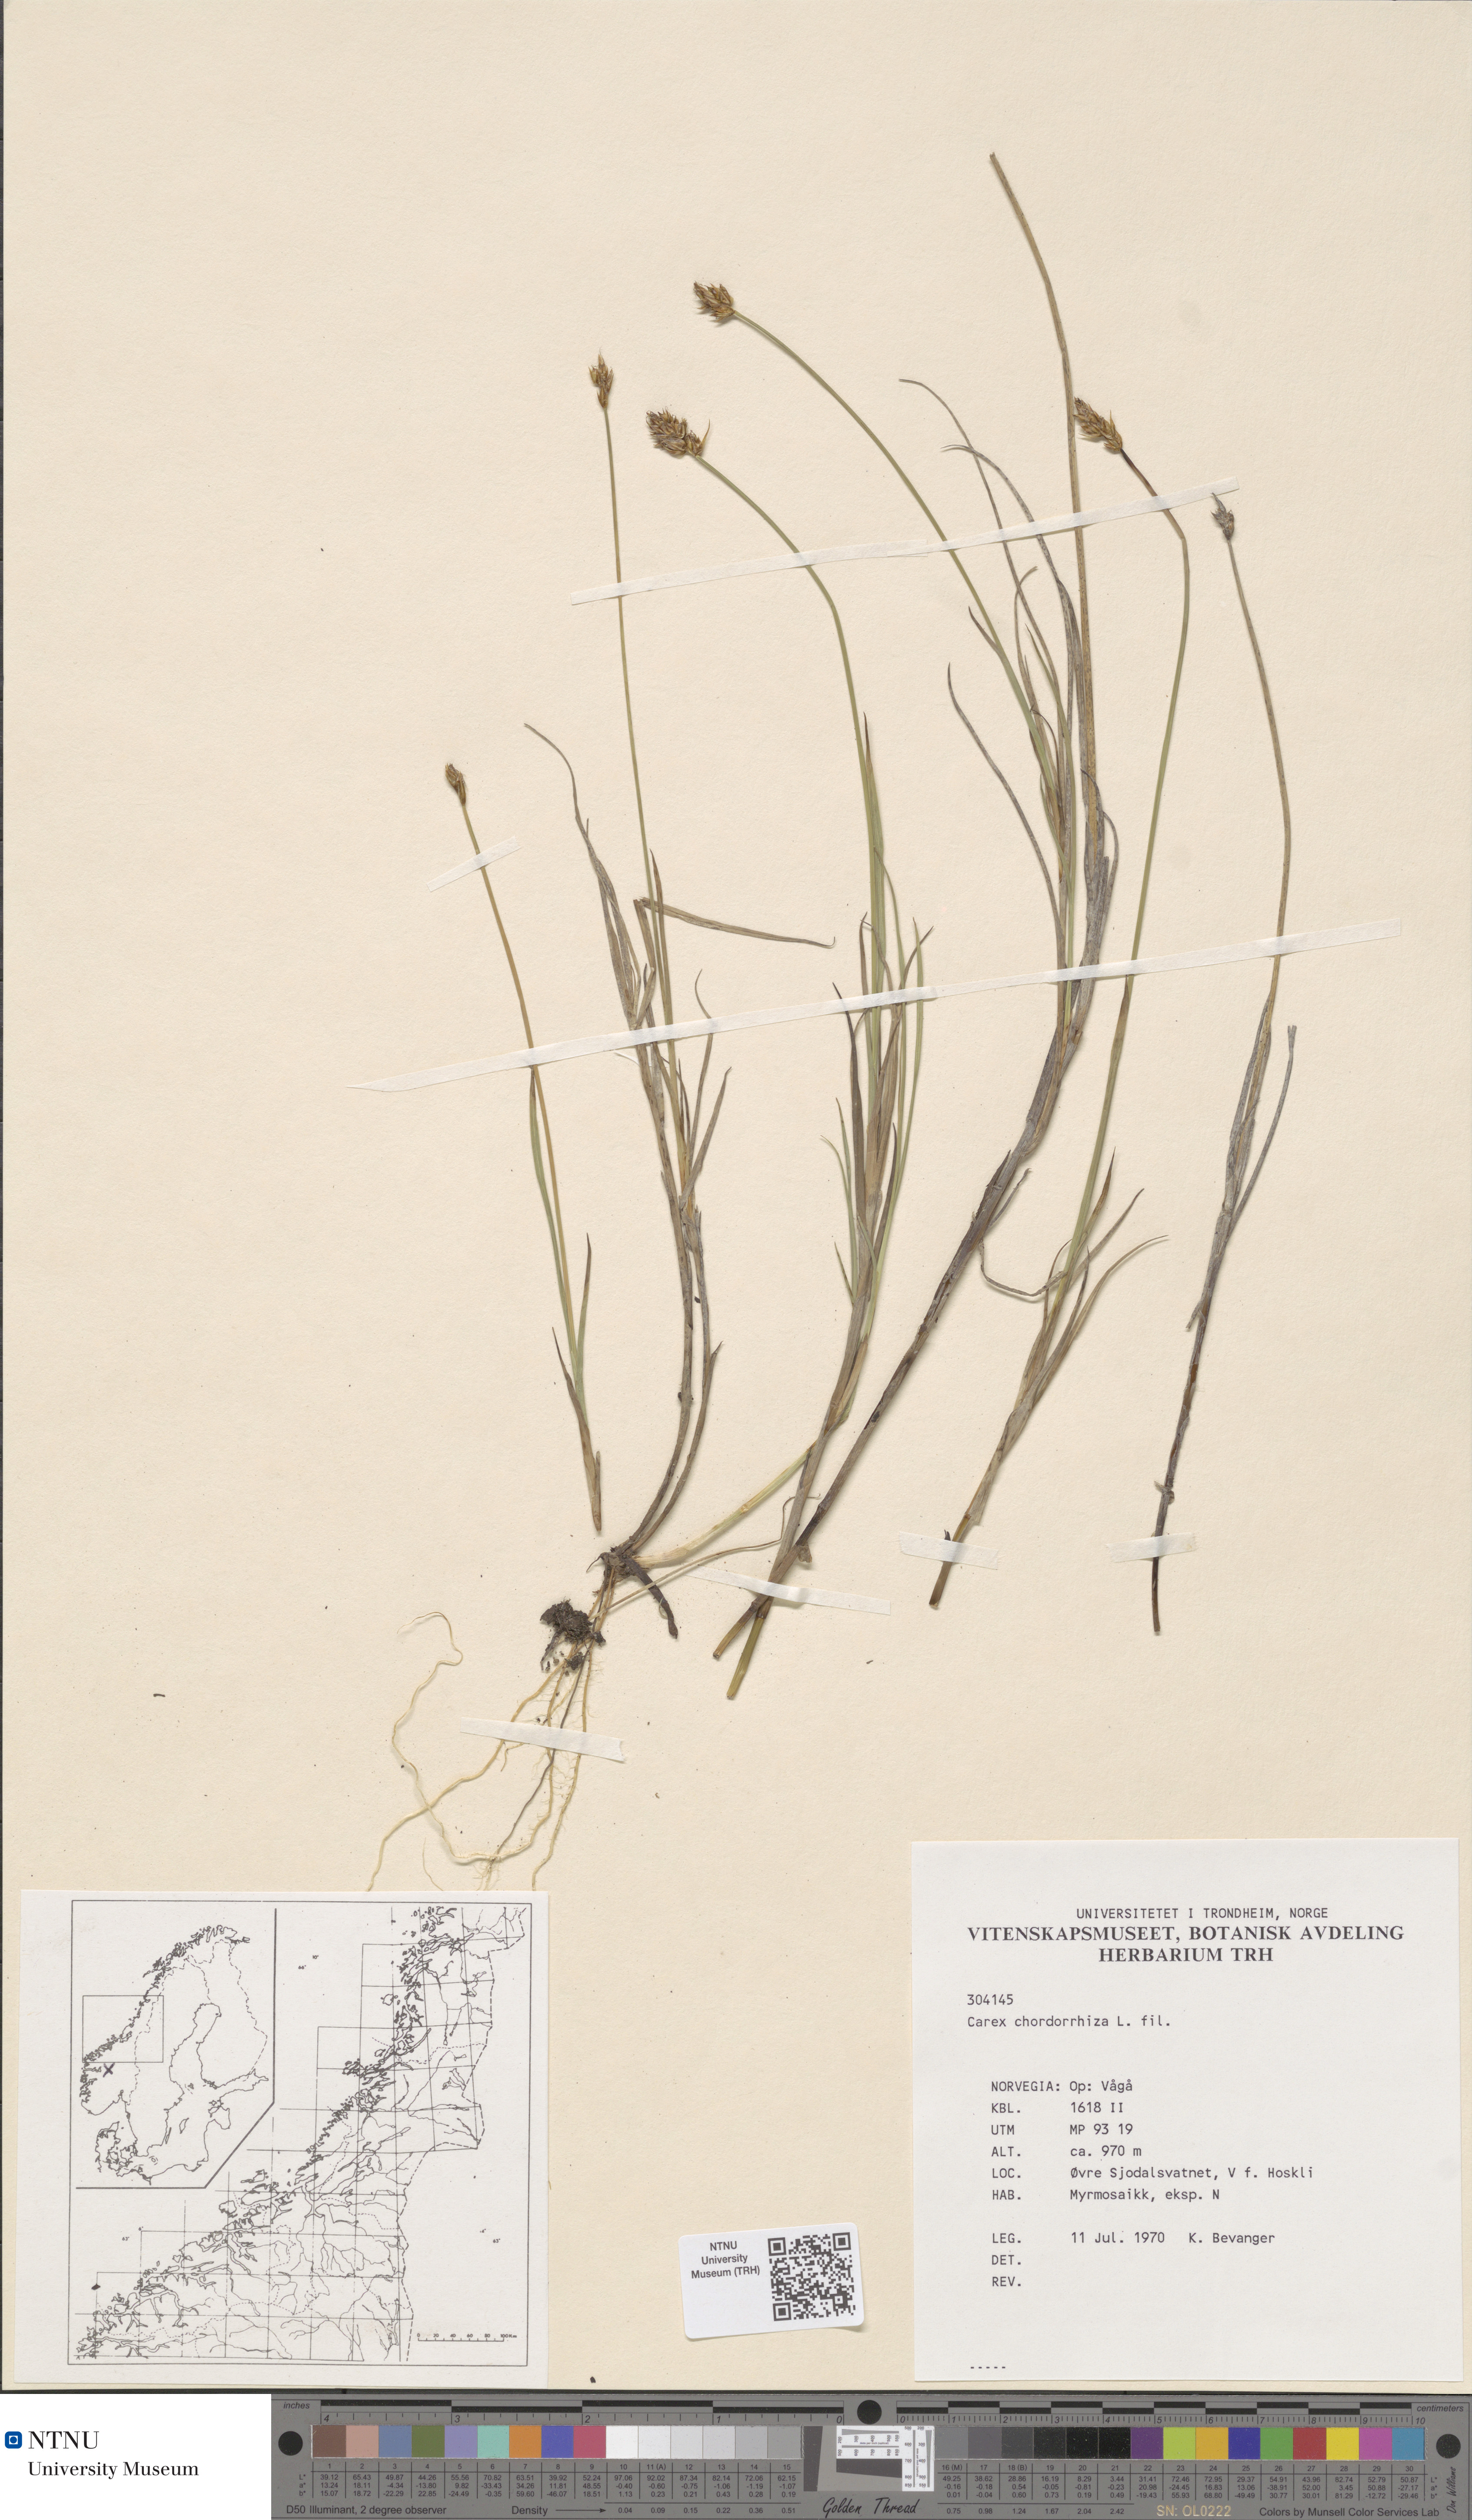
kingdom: Plantae
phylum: Tracheophyta
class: Liliopsida
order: Poales
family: Cyperaceae
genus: Carex
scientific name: Carex chordorrhiza
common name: String sedge
